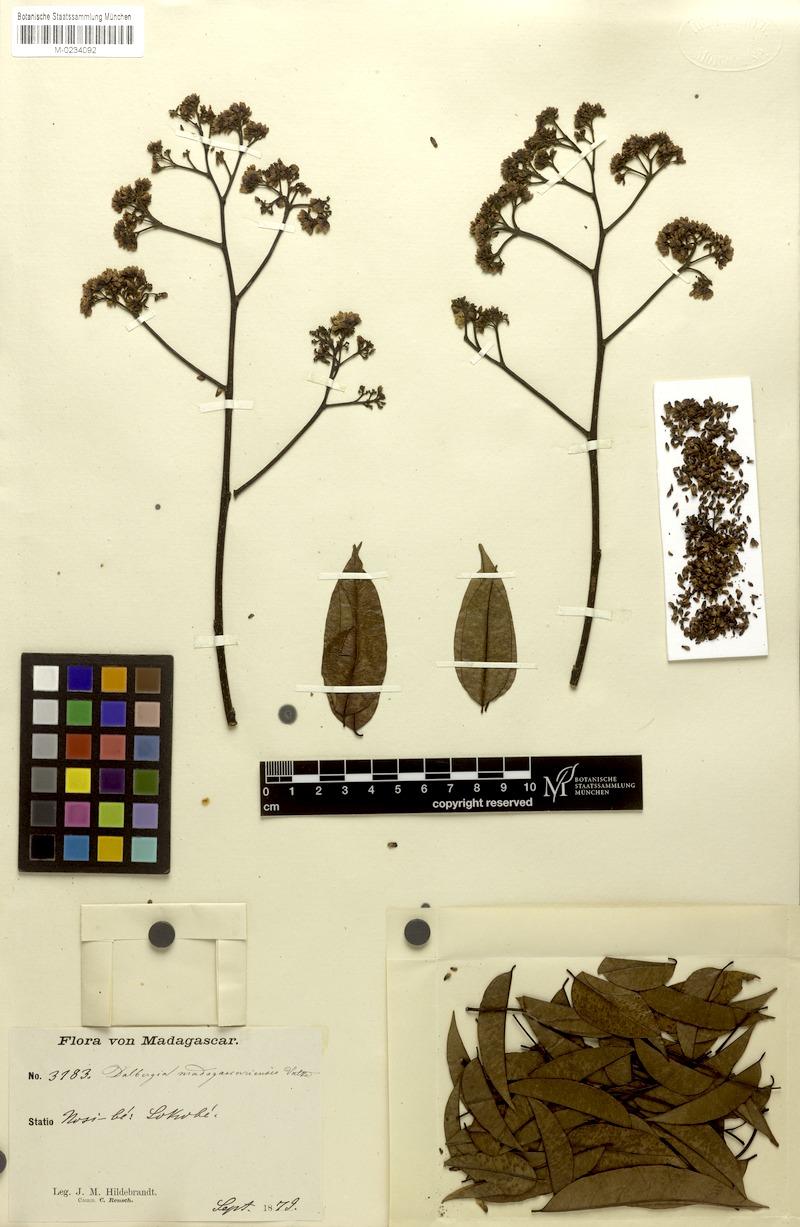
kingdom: Plantae
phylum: Tracheophyta
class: Magnoliopsida
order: Fabales
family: Fabaceae
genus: Dalbergia
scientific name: Dalbergia madagascariensis
